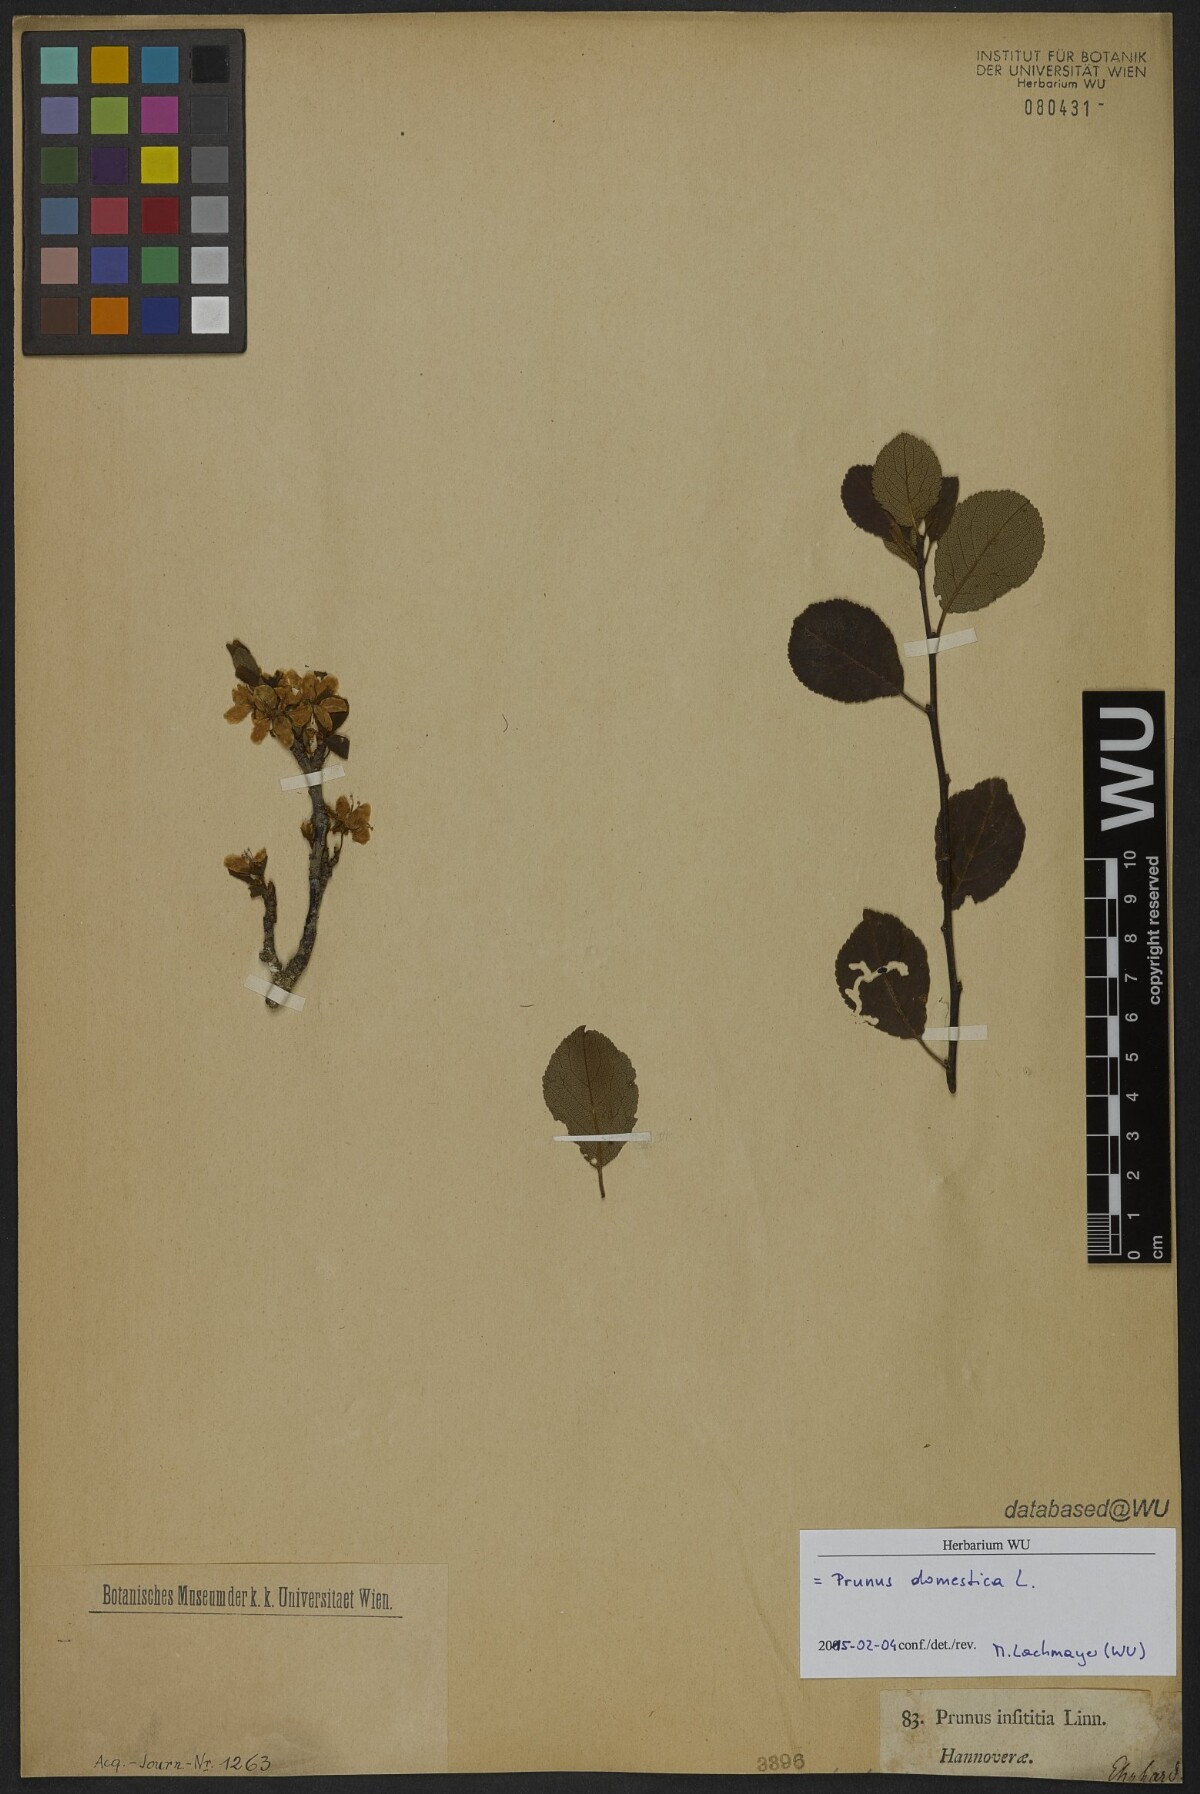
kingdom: Plantae
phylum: Tracheophyta
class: Magnoliopsida
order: Rosales
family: Rosaceae
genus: Prunus
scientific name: Prunus domestica
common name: Wild plum
